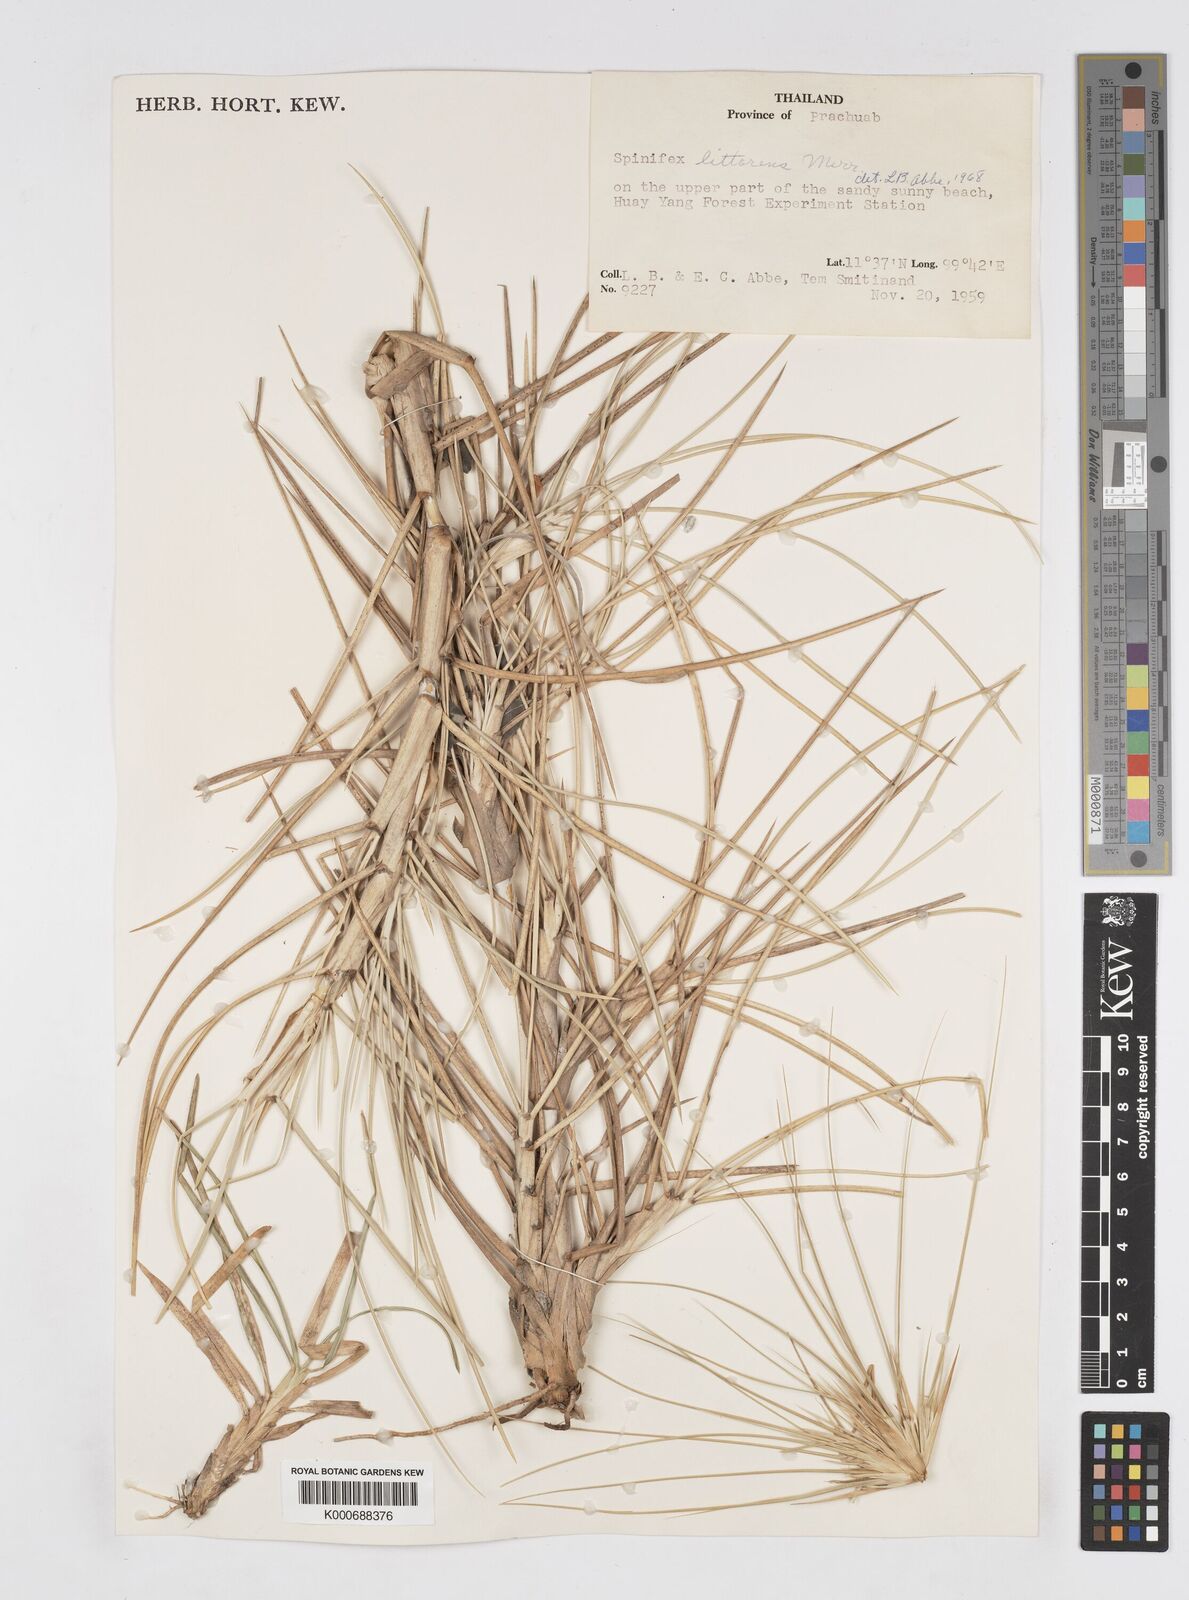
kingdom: Plantae
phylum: Tracheophyta
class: Liliopsida
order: Poales
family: Poaceae
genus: Spinifex
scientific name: Spinifex littoreus
